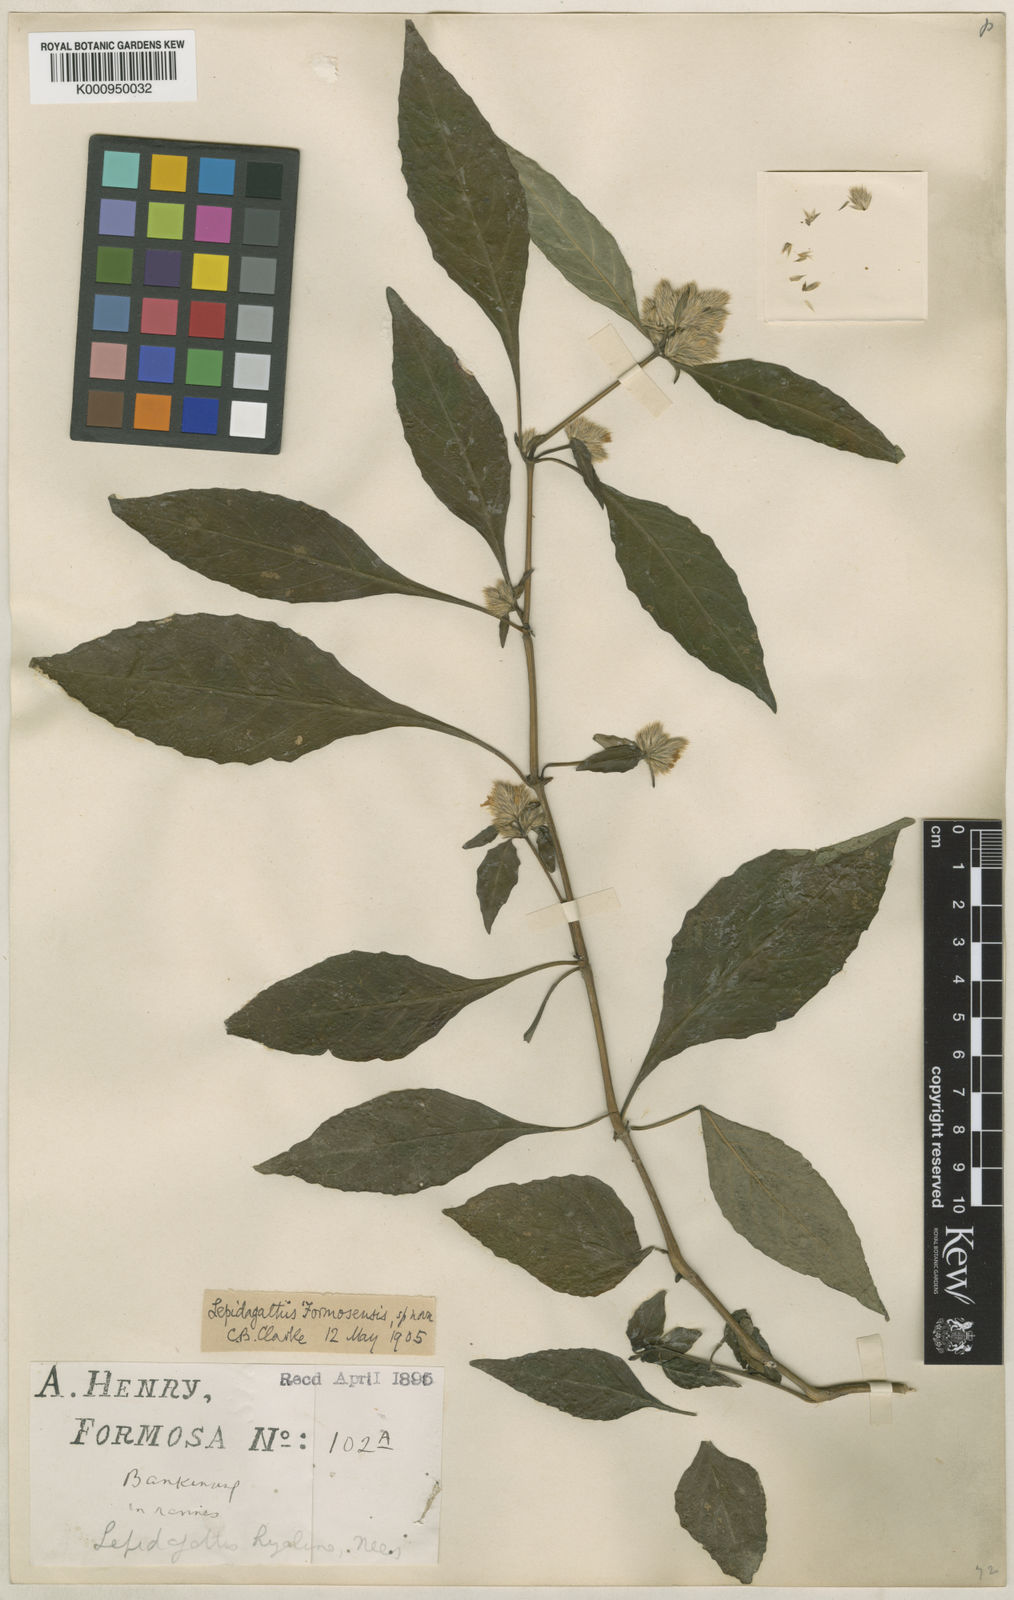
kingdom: Plantae
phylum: Tracheophyta
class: Magnoliopsida
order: Lamiales
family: Acanthaceae
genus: Lepidagathis
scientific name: Lepidagathis formosensis
